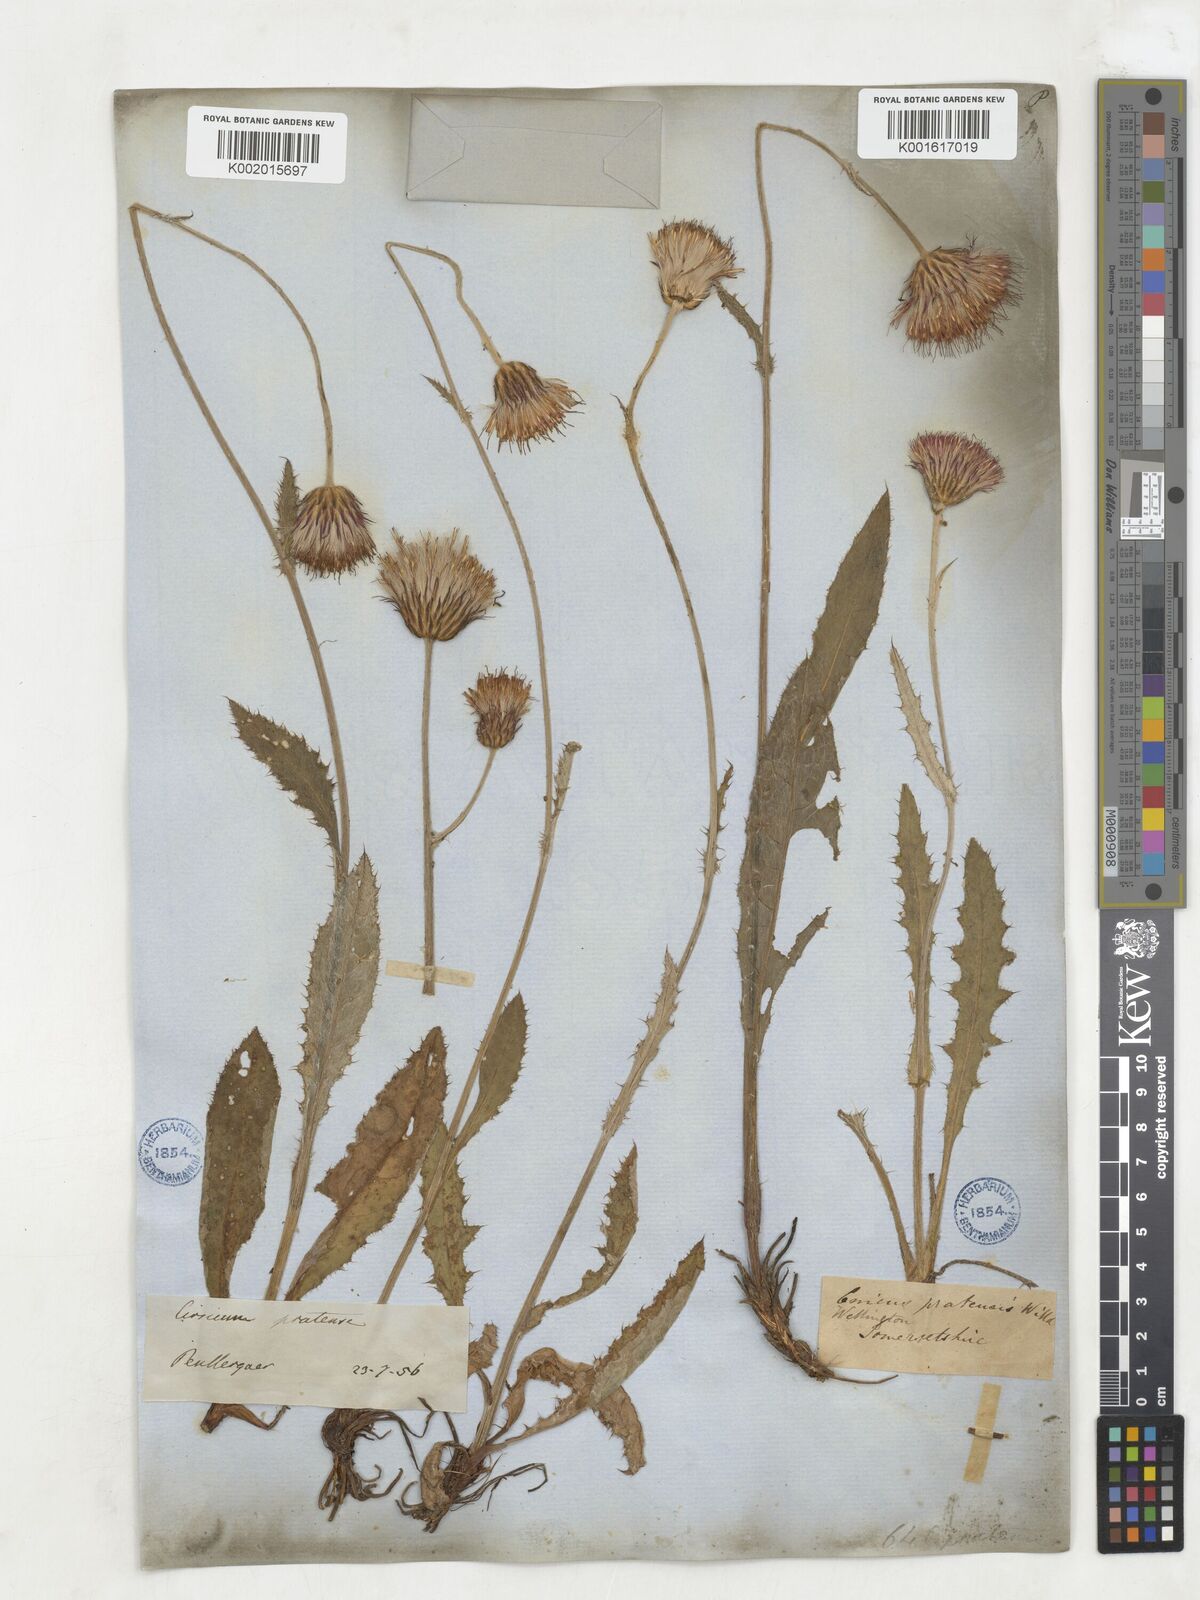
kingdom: Plantae
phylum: Tracheophyta
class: Magnoliopsida
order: Asterales
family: Asteraceae
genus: Cirsium
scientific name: Cirsium dissectum
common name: Meadow thistle
